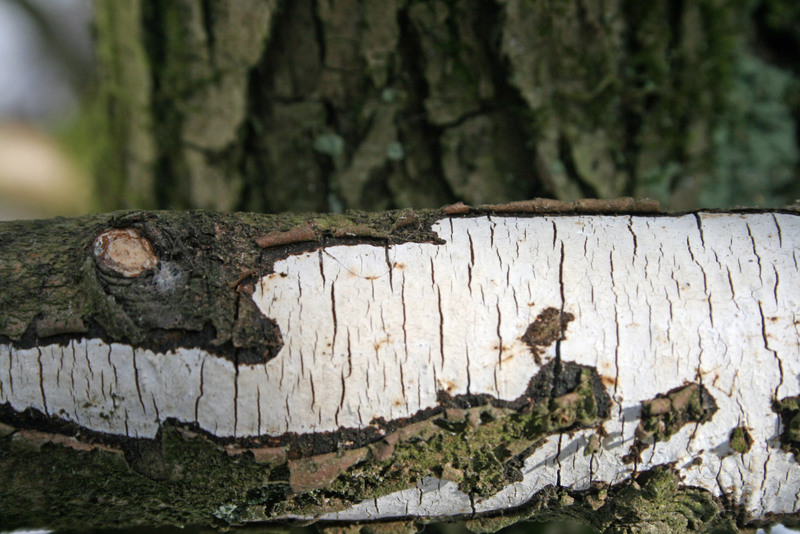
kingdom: Fungi
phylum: Basidiomycota
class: Agaricomycetes
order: Corticiales
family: Vuilleminiaceae
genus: Vuilleminia
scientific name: Vuilleminia cystidiata
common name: tjørne-barksprænger
